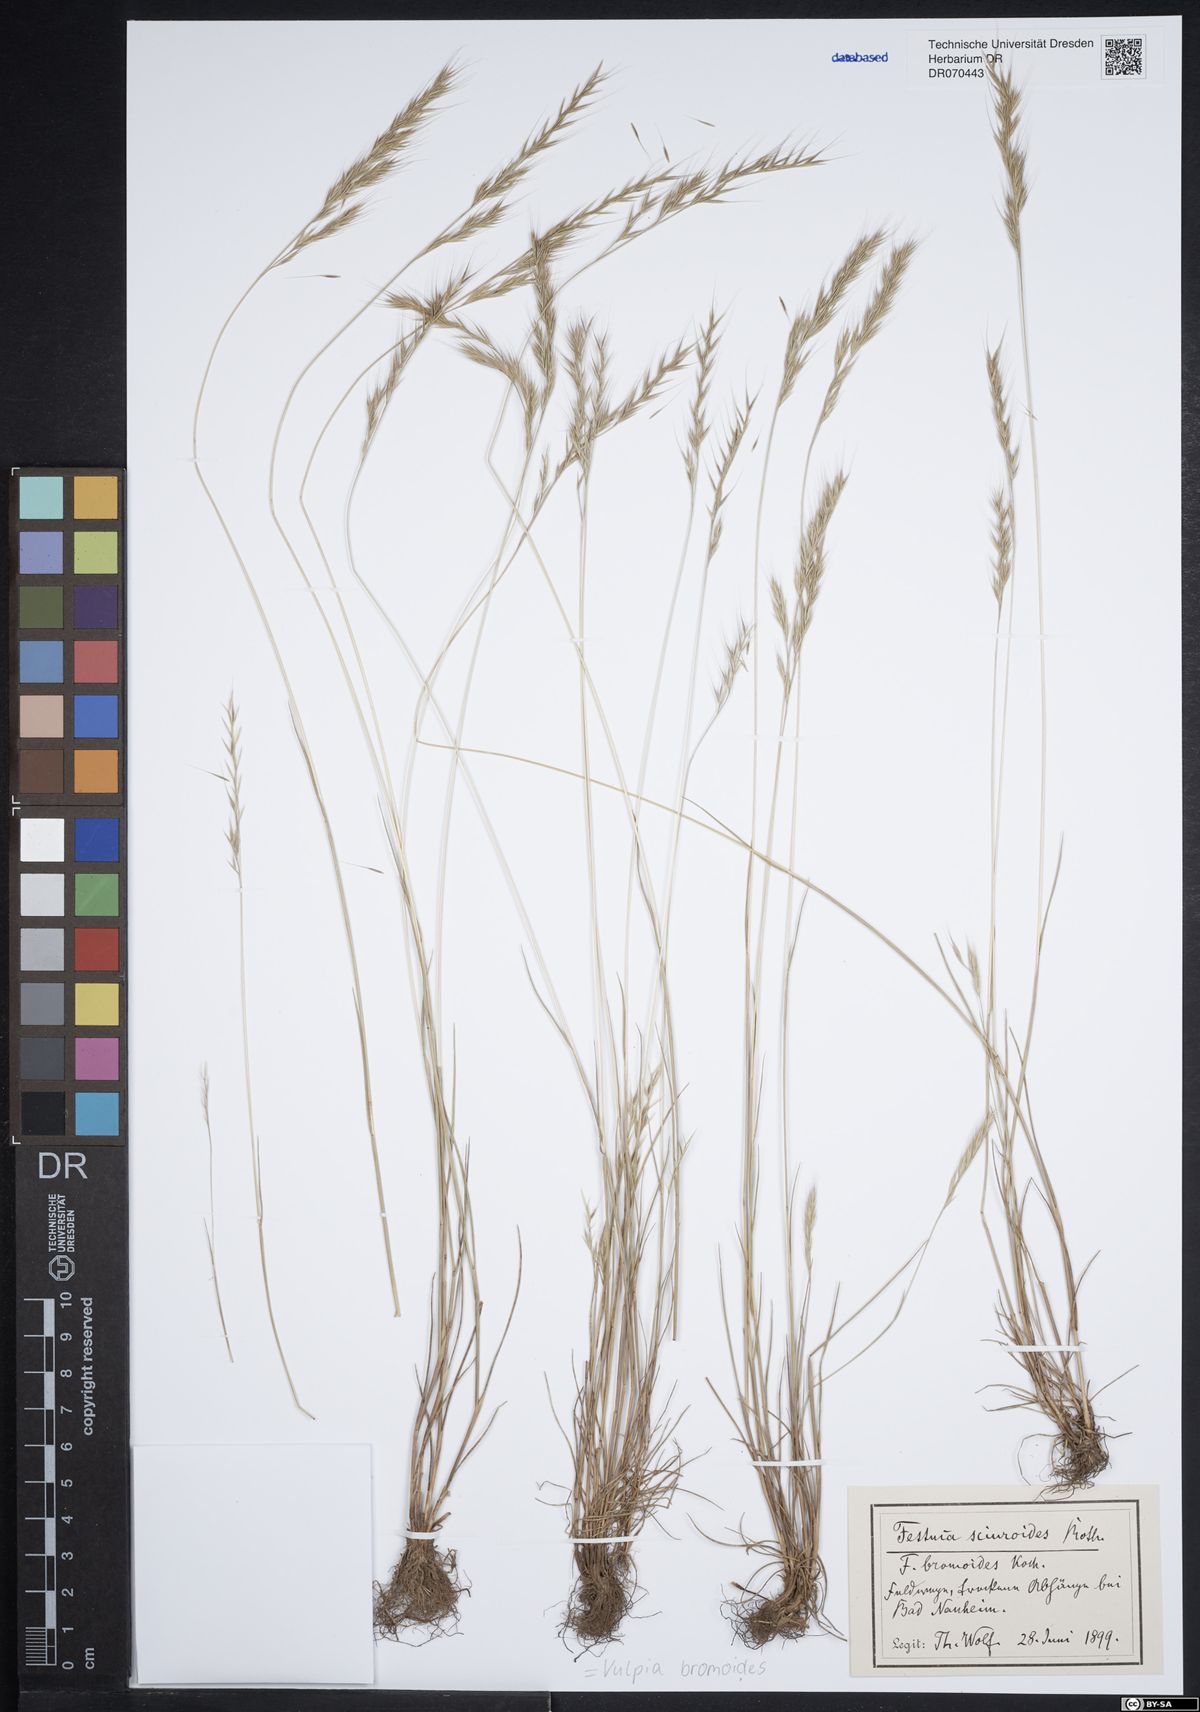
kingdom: Plantae
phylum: Tracheophyta
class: Liliopsida
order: Poales
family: Poaceae
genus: Festuca
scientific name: Festuca bromoides
